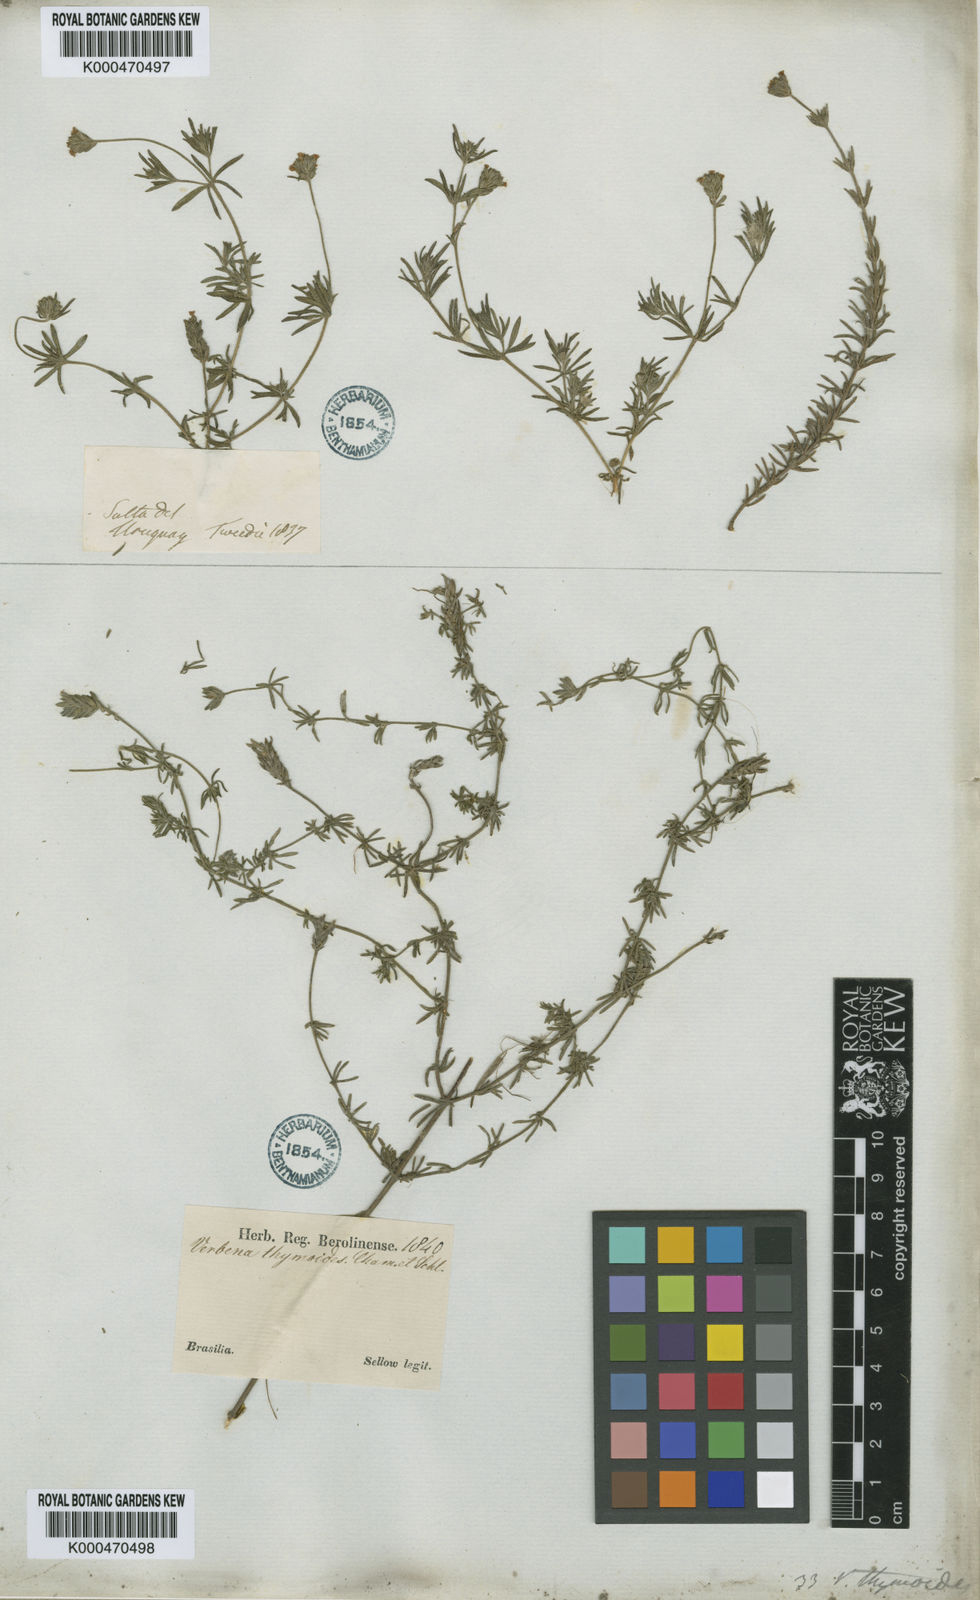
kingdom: Plantae
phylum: Tracheophyta
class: Magnoliopsida
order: Lamiales
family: Verbenaceae
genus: Verbena
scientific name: Verbena thymoides
